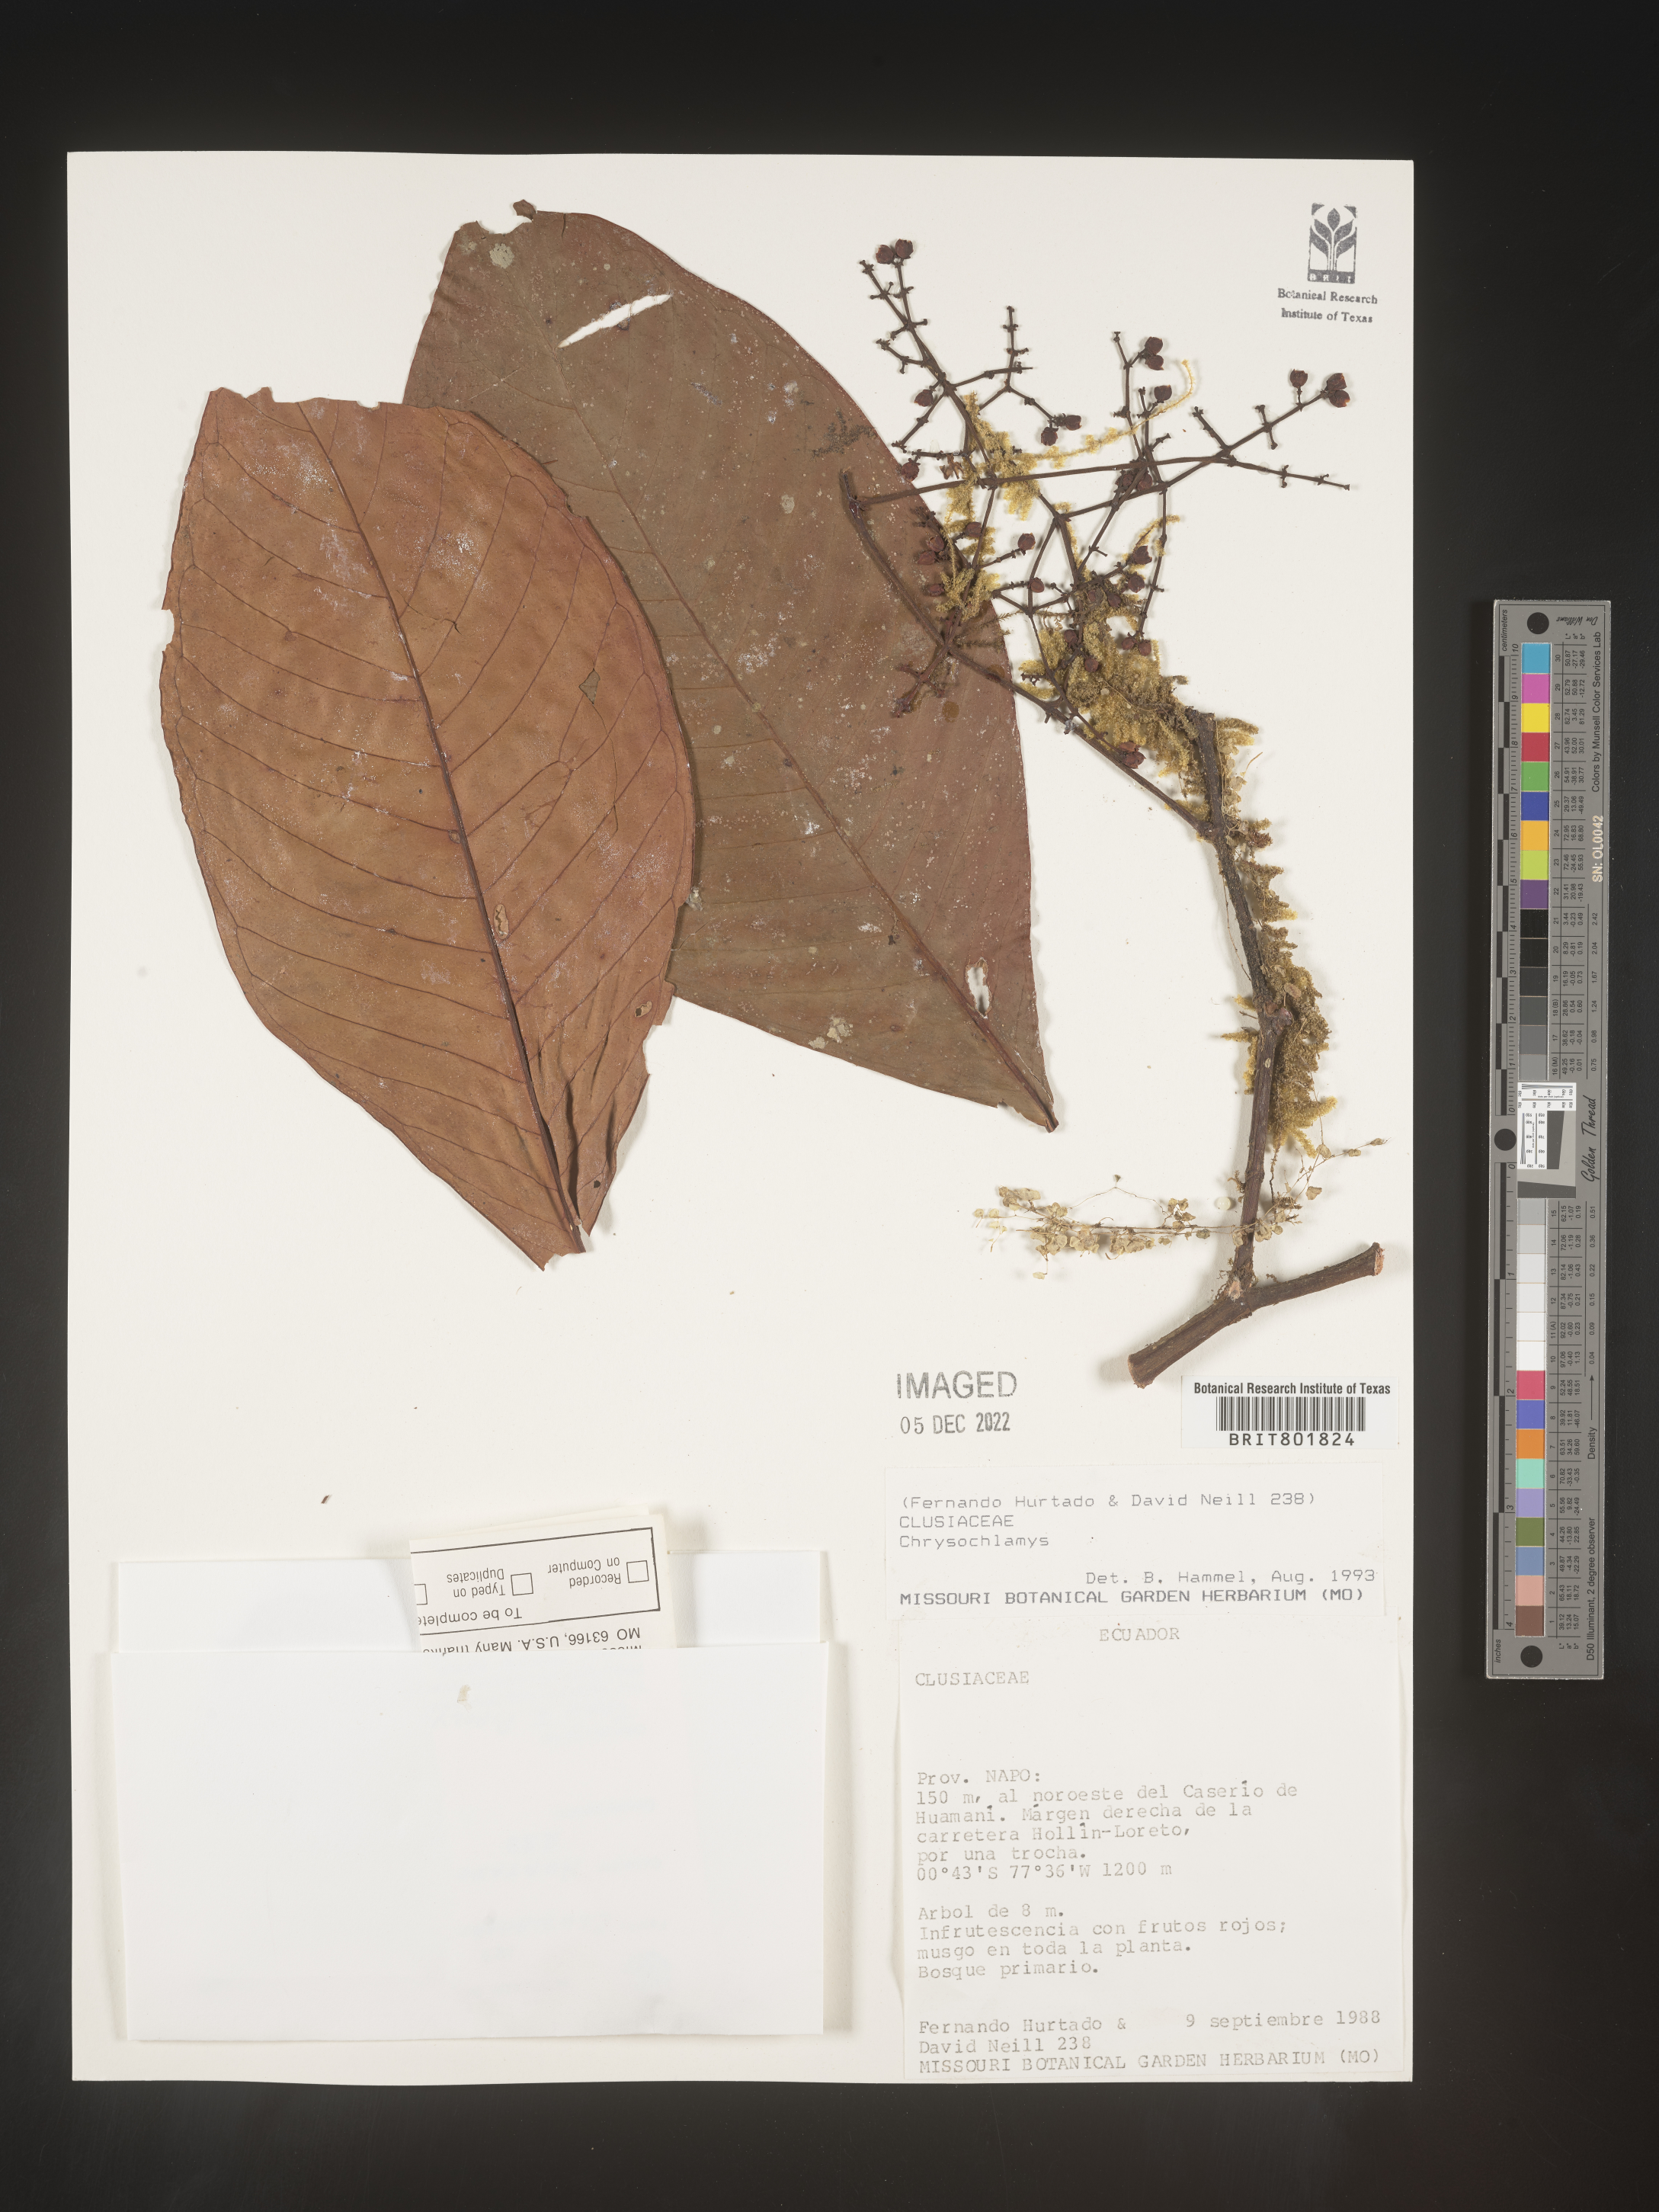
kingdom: Plantae
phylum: Tracheophyta
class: Magnoliopsida
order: Malpighiales
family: Clusiaceae
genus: Chrysochlamys
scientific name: Chrysochlamys
